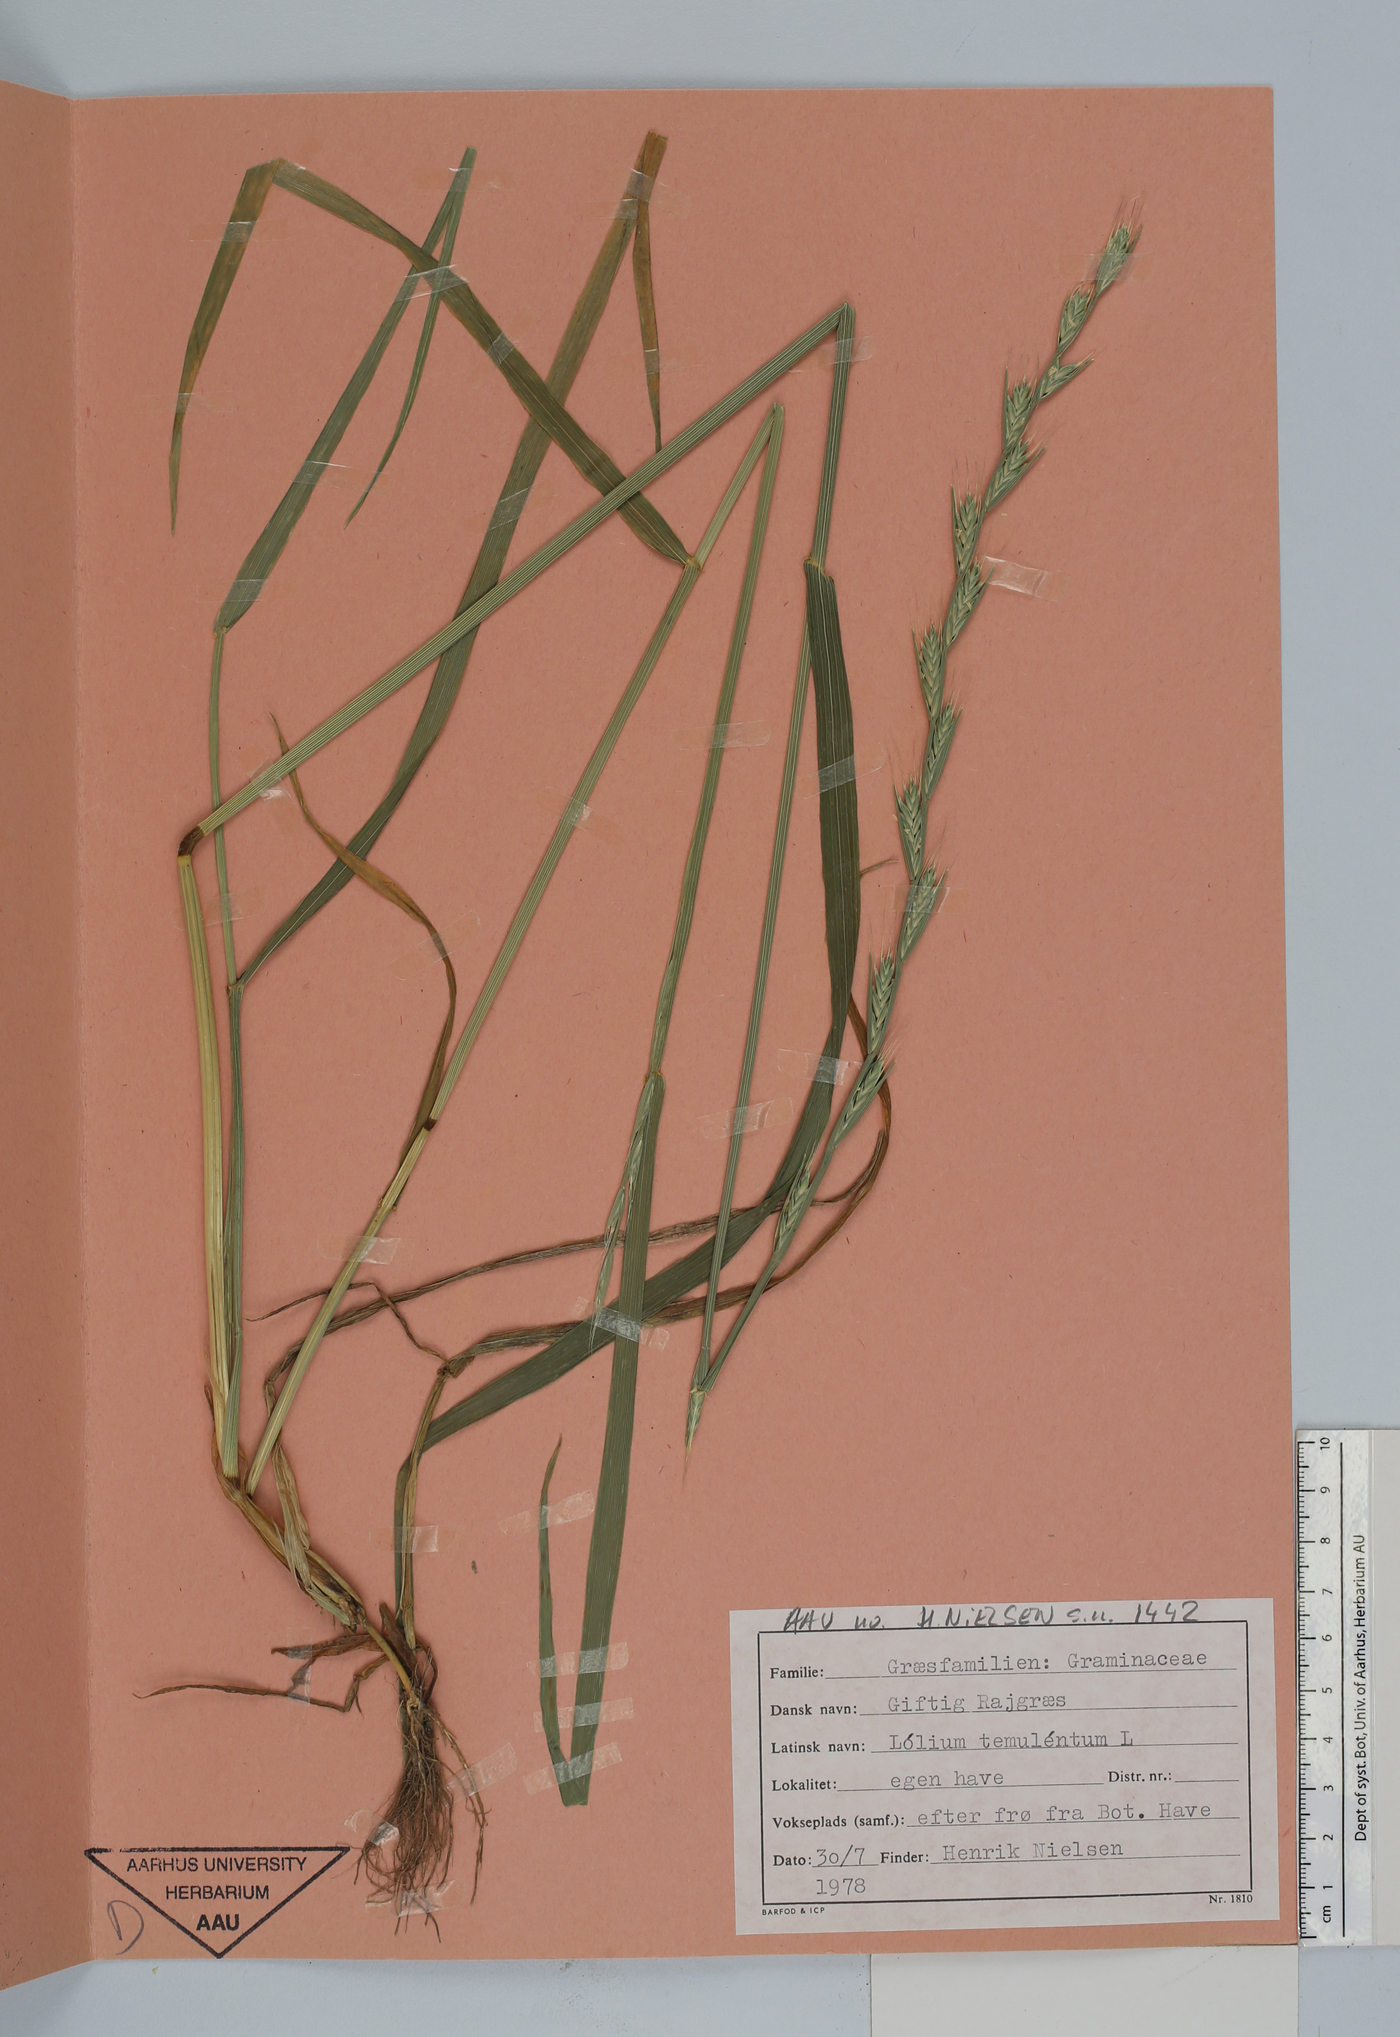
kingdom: Plantae
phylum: Tracheophyta
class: Liliopsida
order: Poales
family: Poaceae
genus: Lolium
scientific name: Lolium temulentum
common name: Darnel
